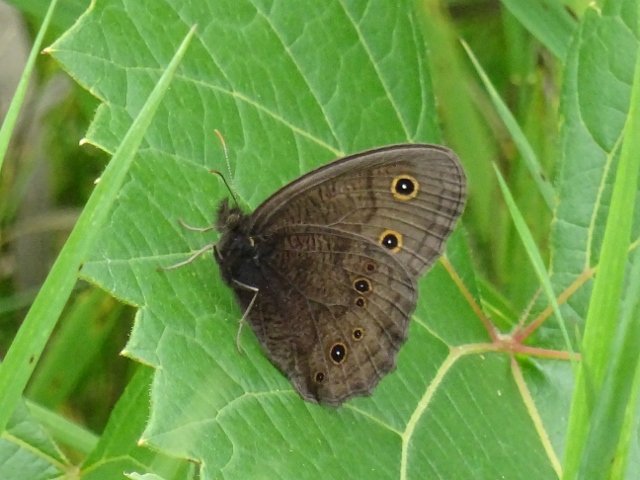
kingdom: Animalia
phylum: Arthropoda
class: Insecta
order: Lepidoptera
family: Nymphalidae
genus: Cercyonis
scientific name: Cercyonis pegala
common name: Common Wood-Nymph
